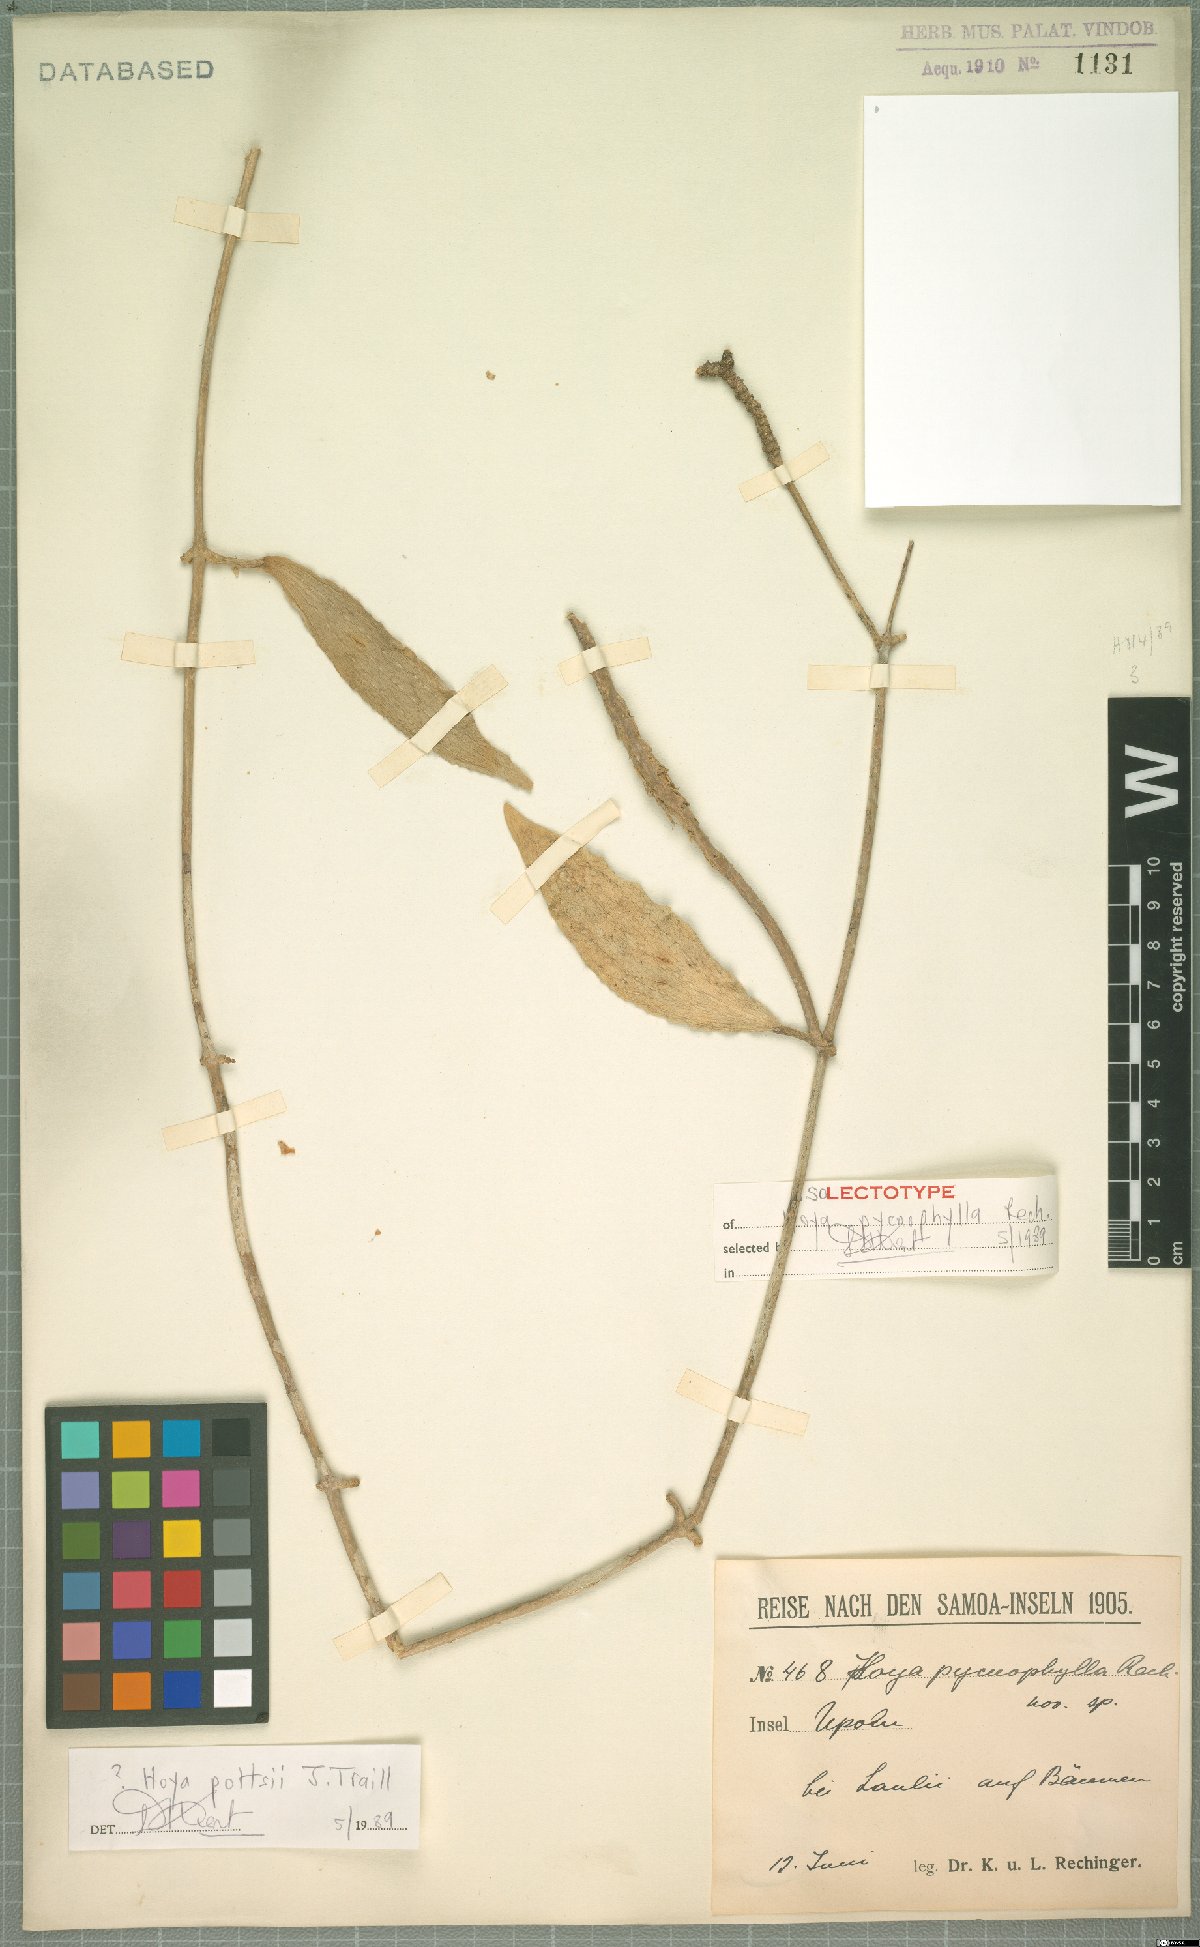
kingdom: Plantae
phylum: Tracheophyta
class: Magnoliopsida
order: Gentianales
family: Apocynaceae
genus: Hoya
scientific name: Hoya verticillata
